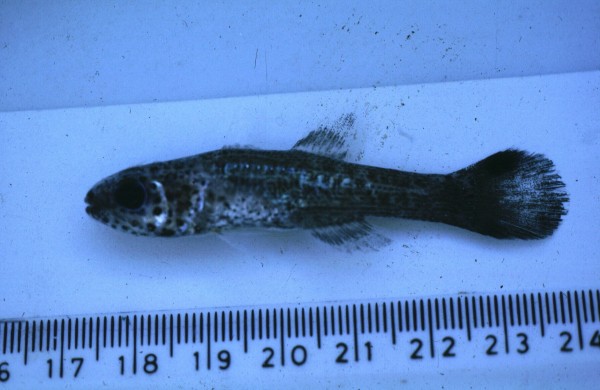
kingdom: Animalia
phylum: Chordata
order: Perciformes
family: Apogonidae
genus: Pseudamia
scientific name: Pseudamia gelatinosa
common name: Gelatinous cardinalfish
